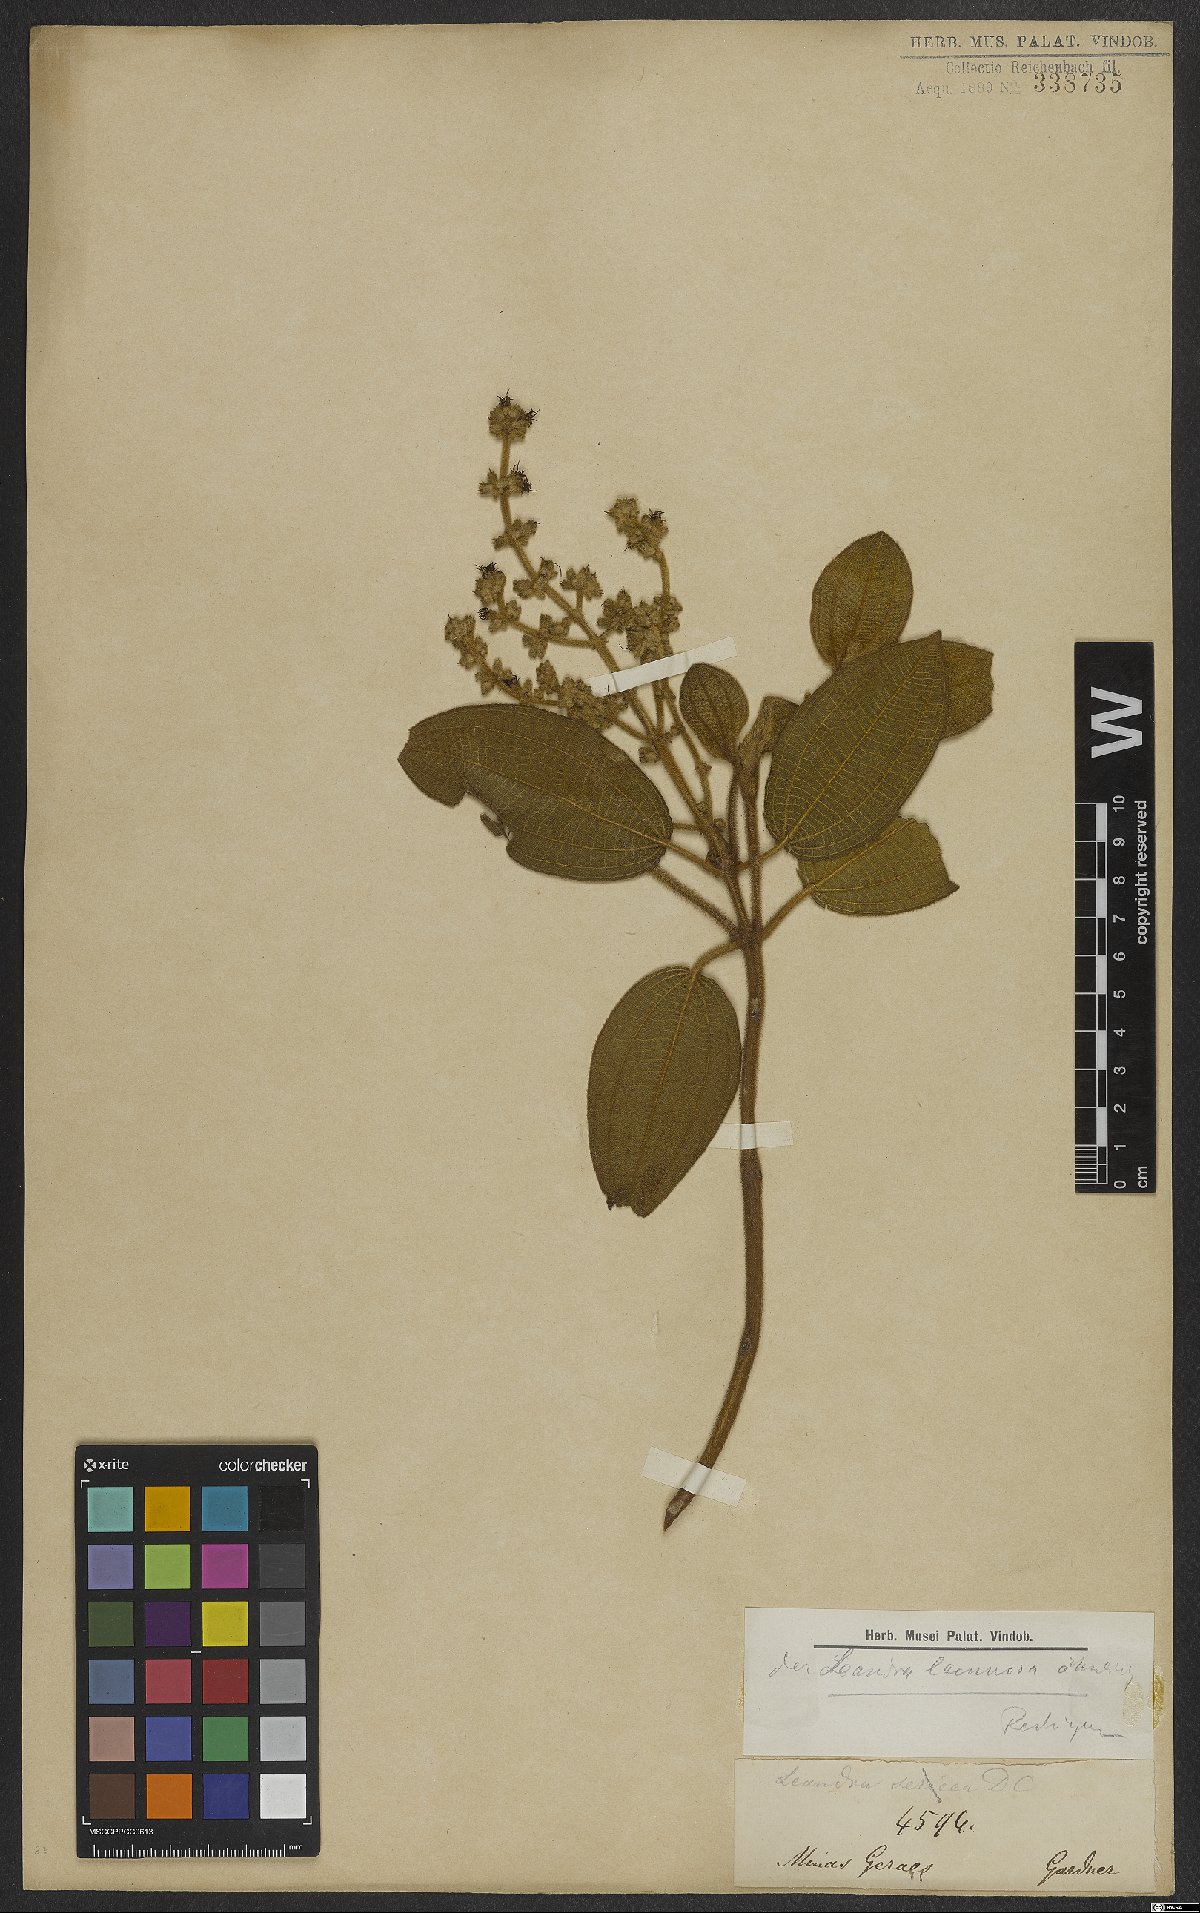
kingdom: Plantae
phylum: Tracheophyta
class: Magnoliopsida
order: Myrtales
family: Melastomataceae
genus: Miconia
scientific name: Miconia lacunosa
